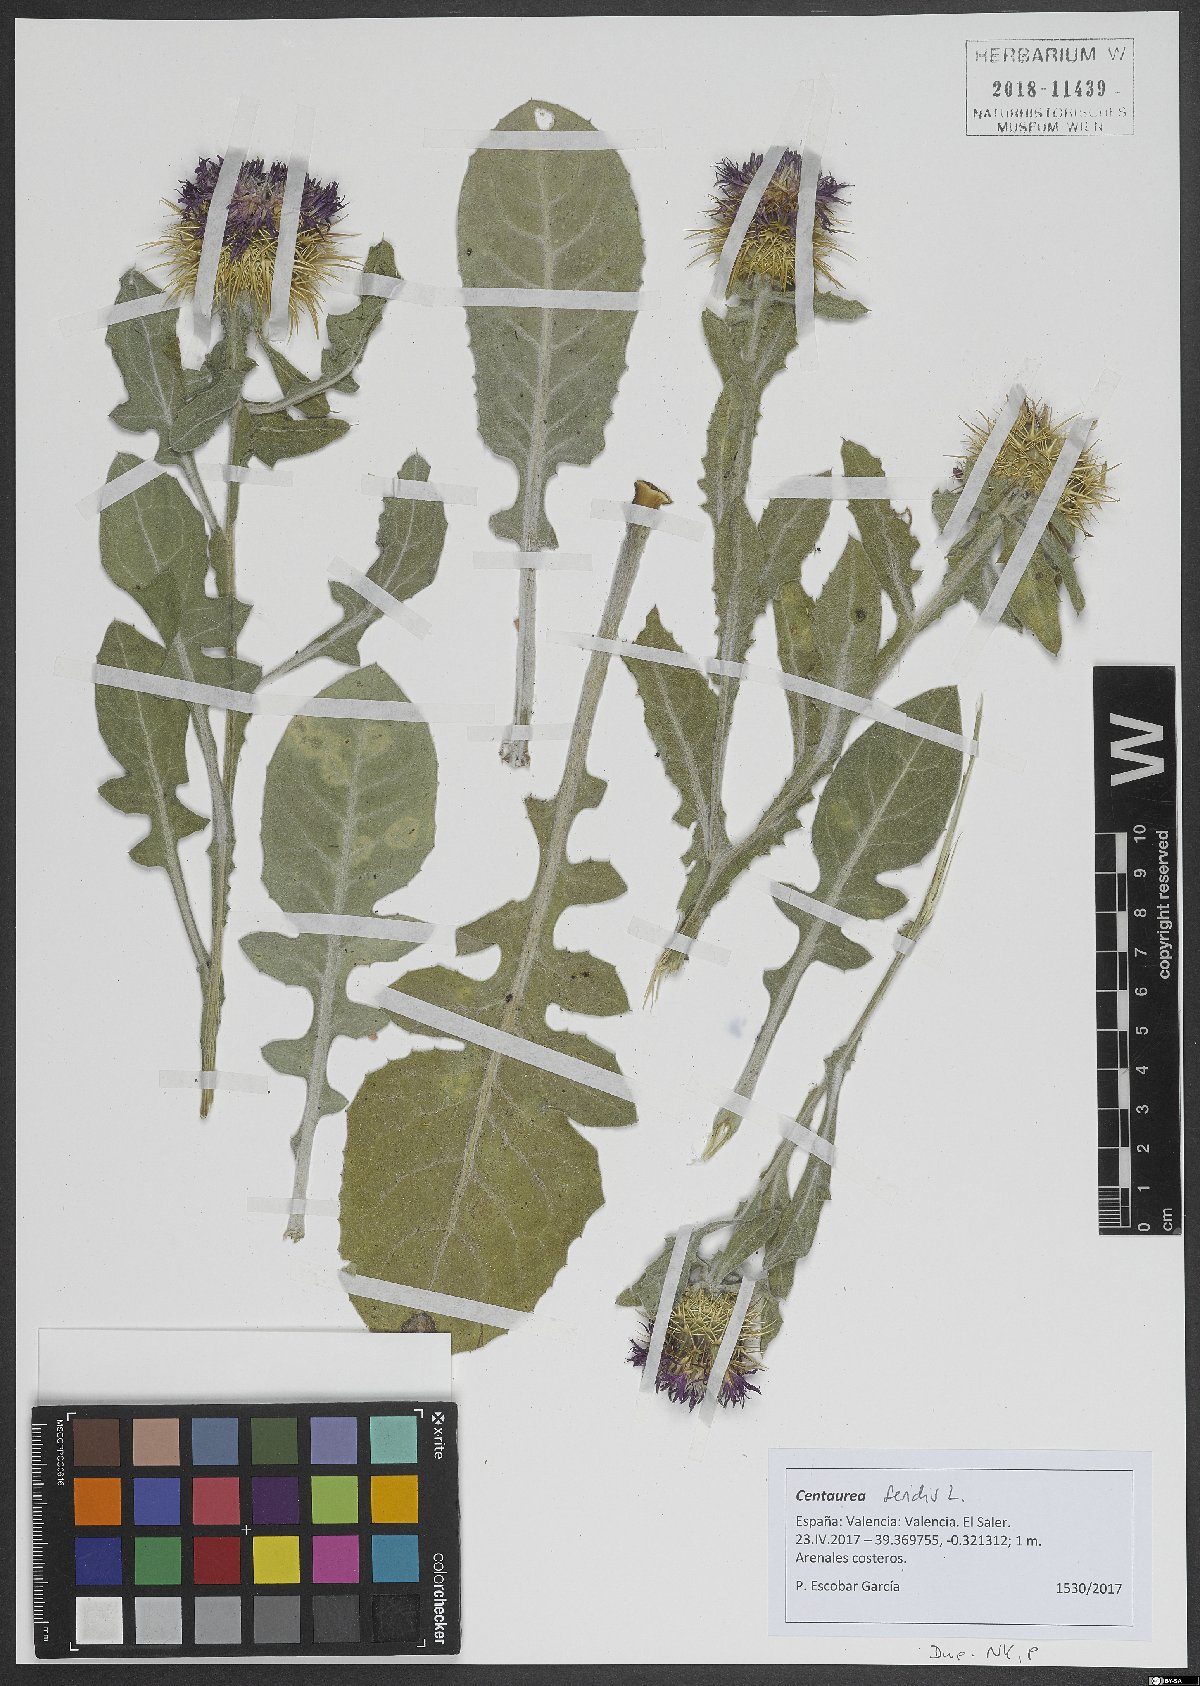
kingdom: Plantae
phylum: Tracheophyta
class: Magnoliopsida
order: Asterales
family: Asteraceae
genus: Centaurea
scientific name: Centaurea seridis
